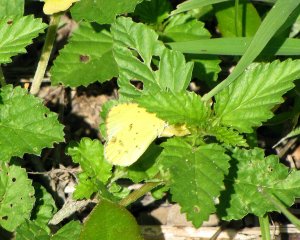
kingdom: Animalia
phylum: Arthropoda
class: Insecta
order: Lepidoptera
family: Pieridae
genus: Pyrisitia
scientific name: Pyrisitia lisa
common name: Little Yellow
